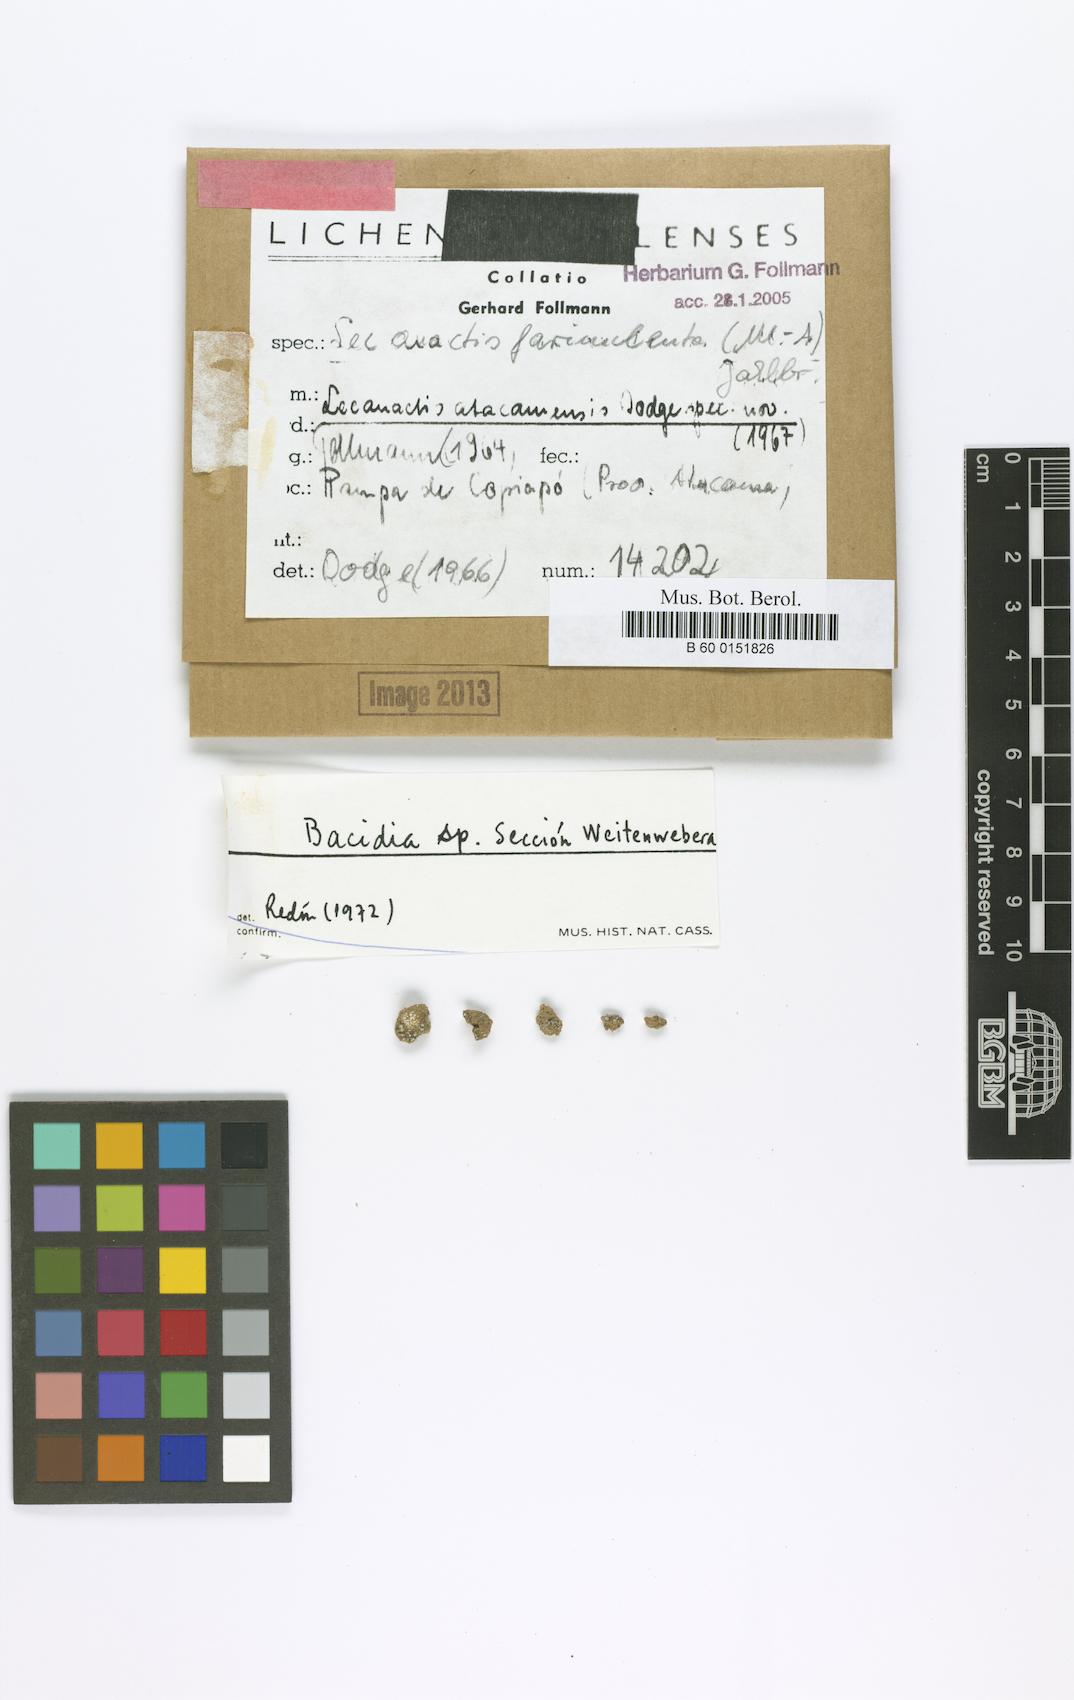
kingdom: Fungi
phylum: Ascomycota
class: Arthoniomycetes
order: Arthoniales
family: Roccellaceae
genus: Lecanactis
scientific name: Lecanactis
